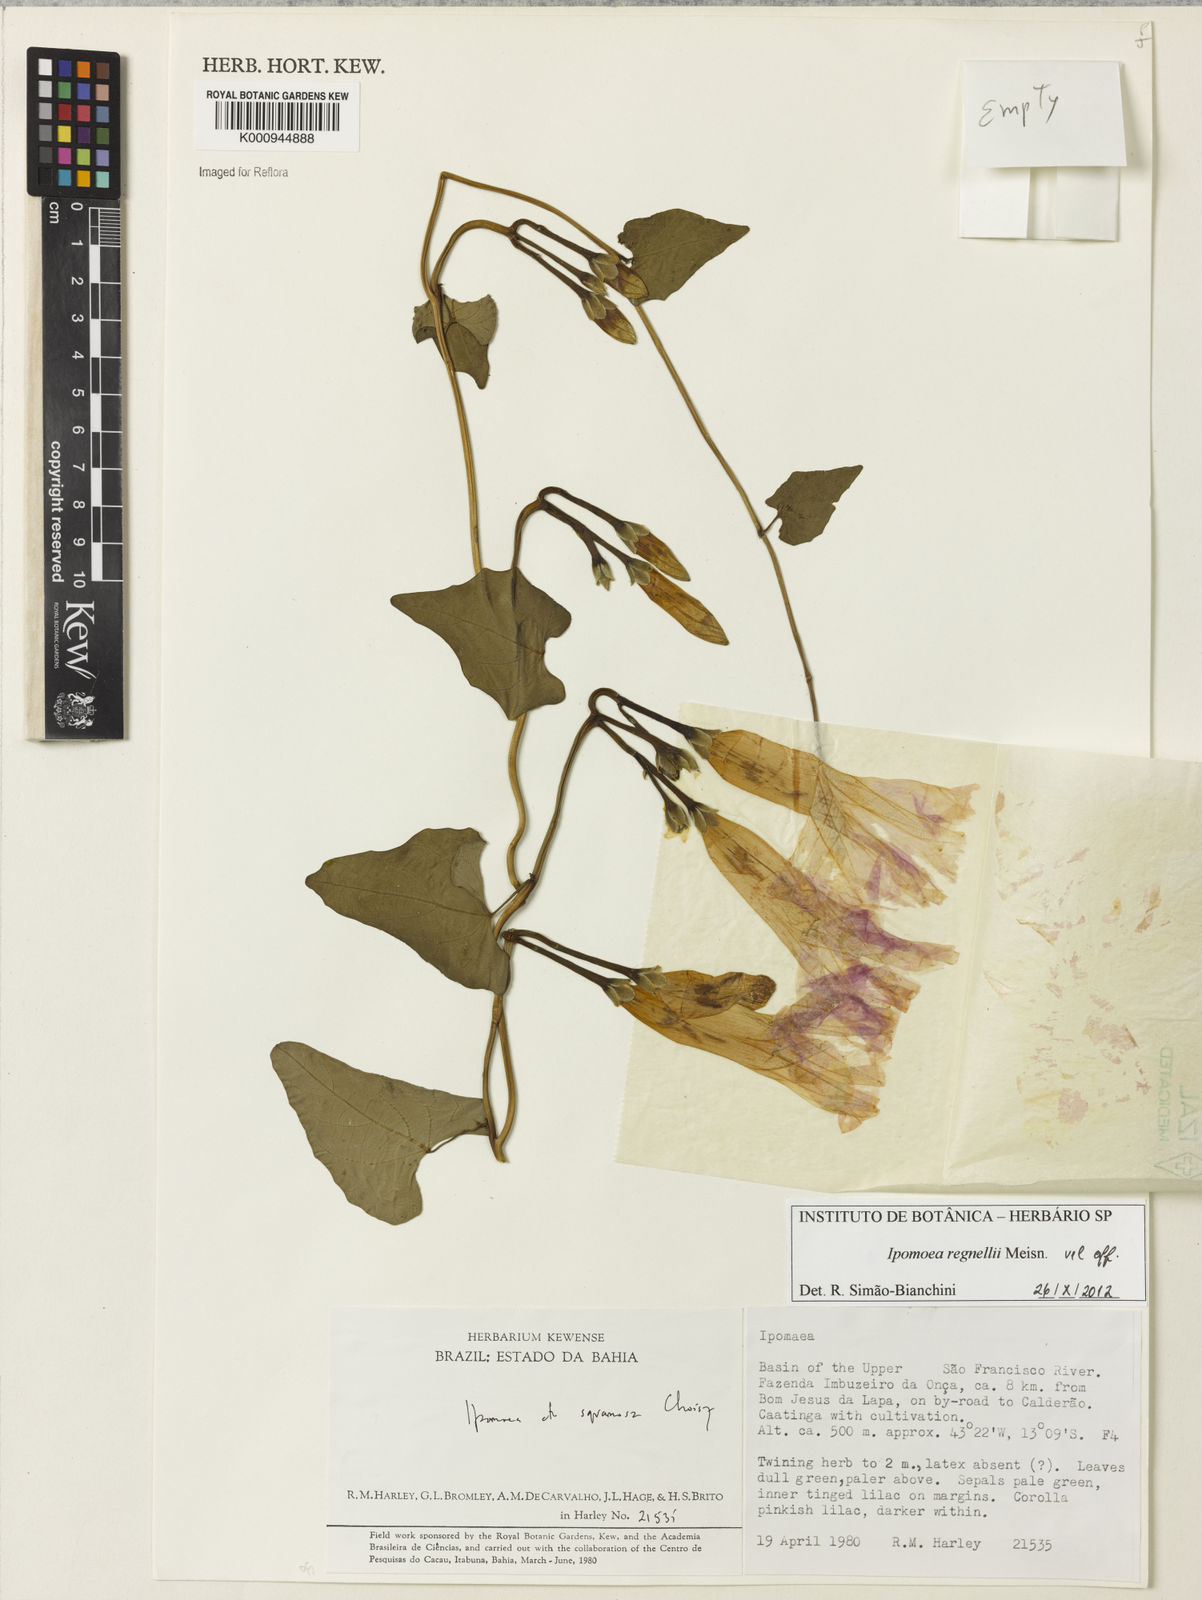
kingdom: Plantae
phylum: Tracheophyta
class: Magnoliopsida
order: Solanales
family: Convolvulaceae
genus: Ipomoea
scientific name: Ipomoea connata
